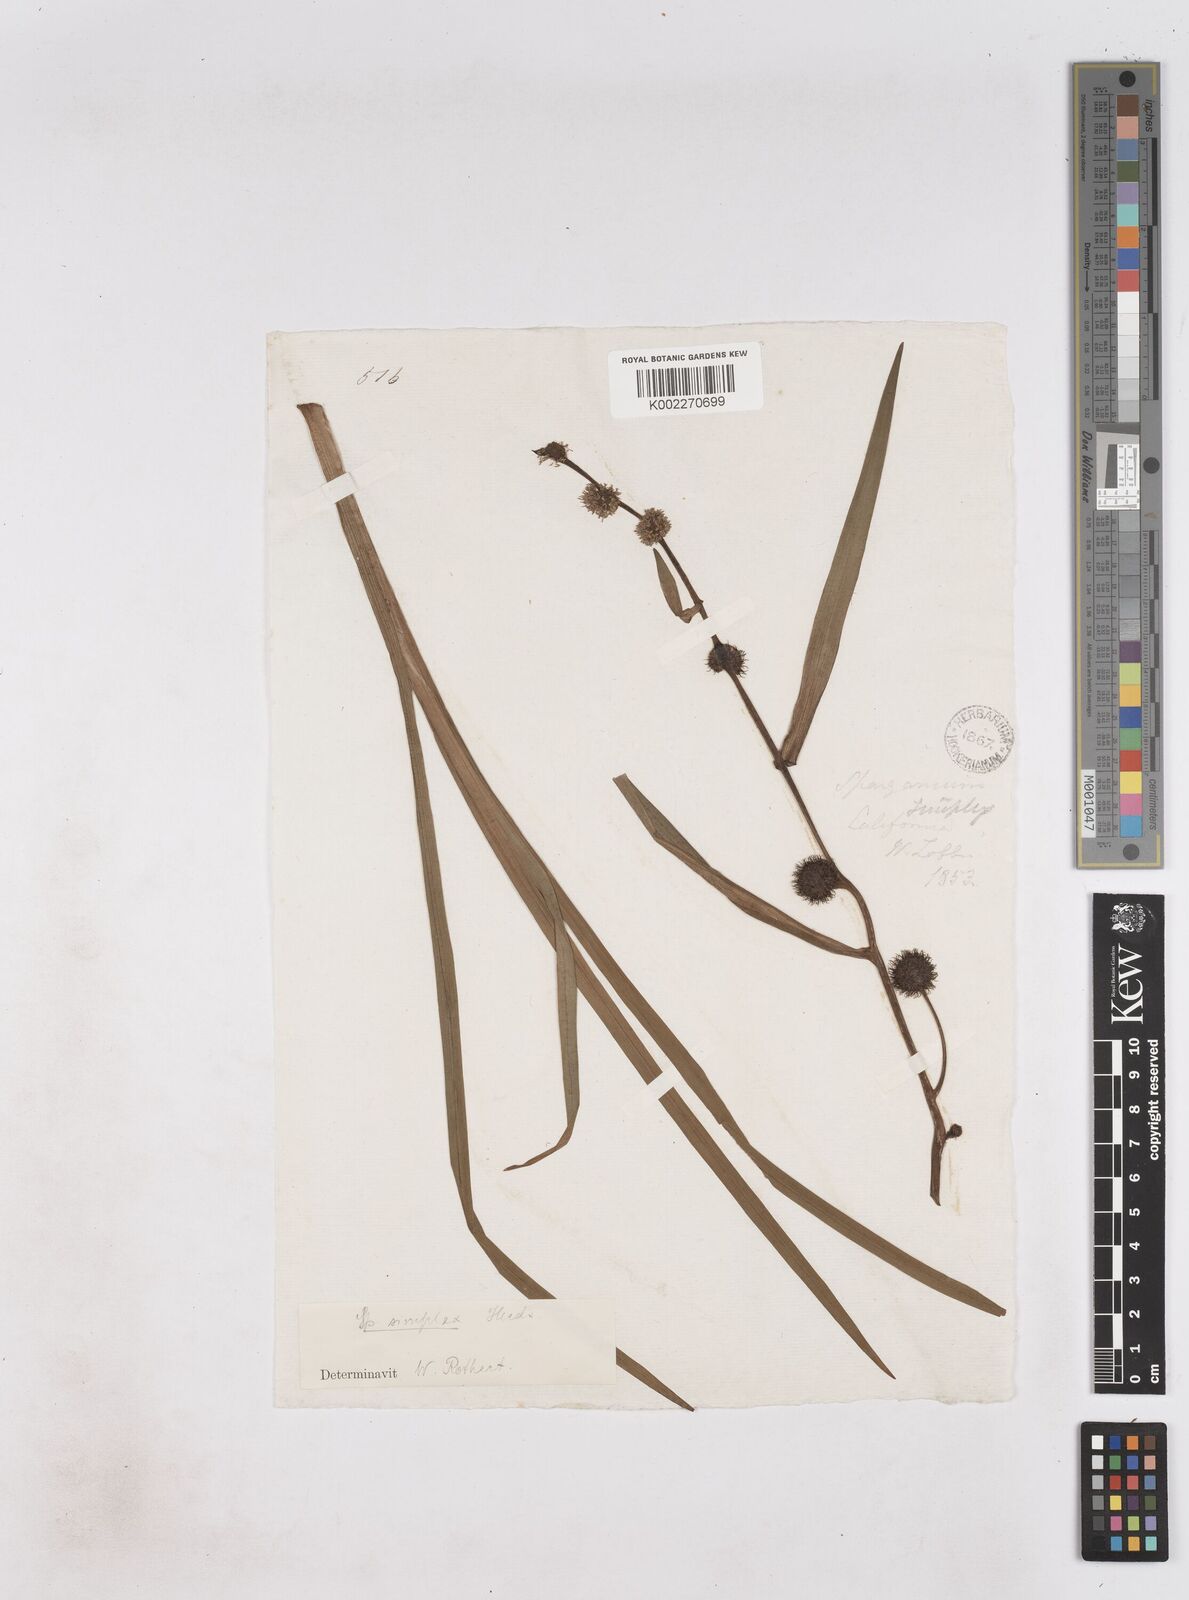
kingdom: Plantae
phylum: Tracheophyta
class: Liliopsida
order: Poales
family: Typhaceae
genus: Sparganium
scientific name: Sparganium emersum
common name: Unbranched bur-reed
